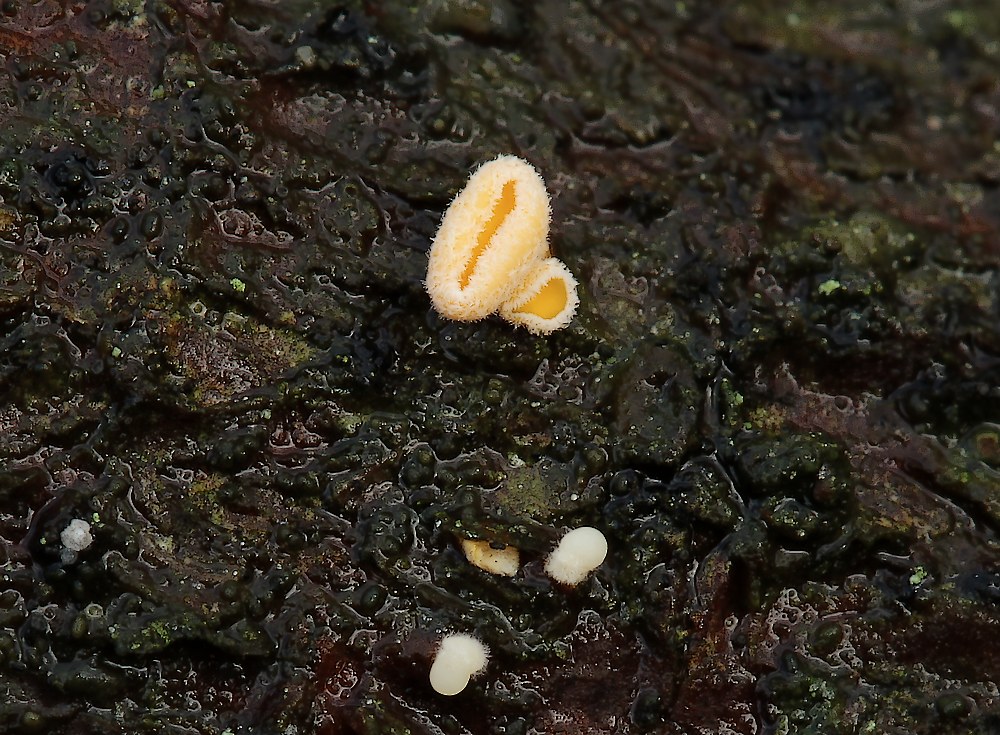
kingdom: Fungi
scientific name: Fungi
